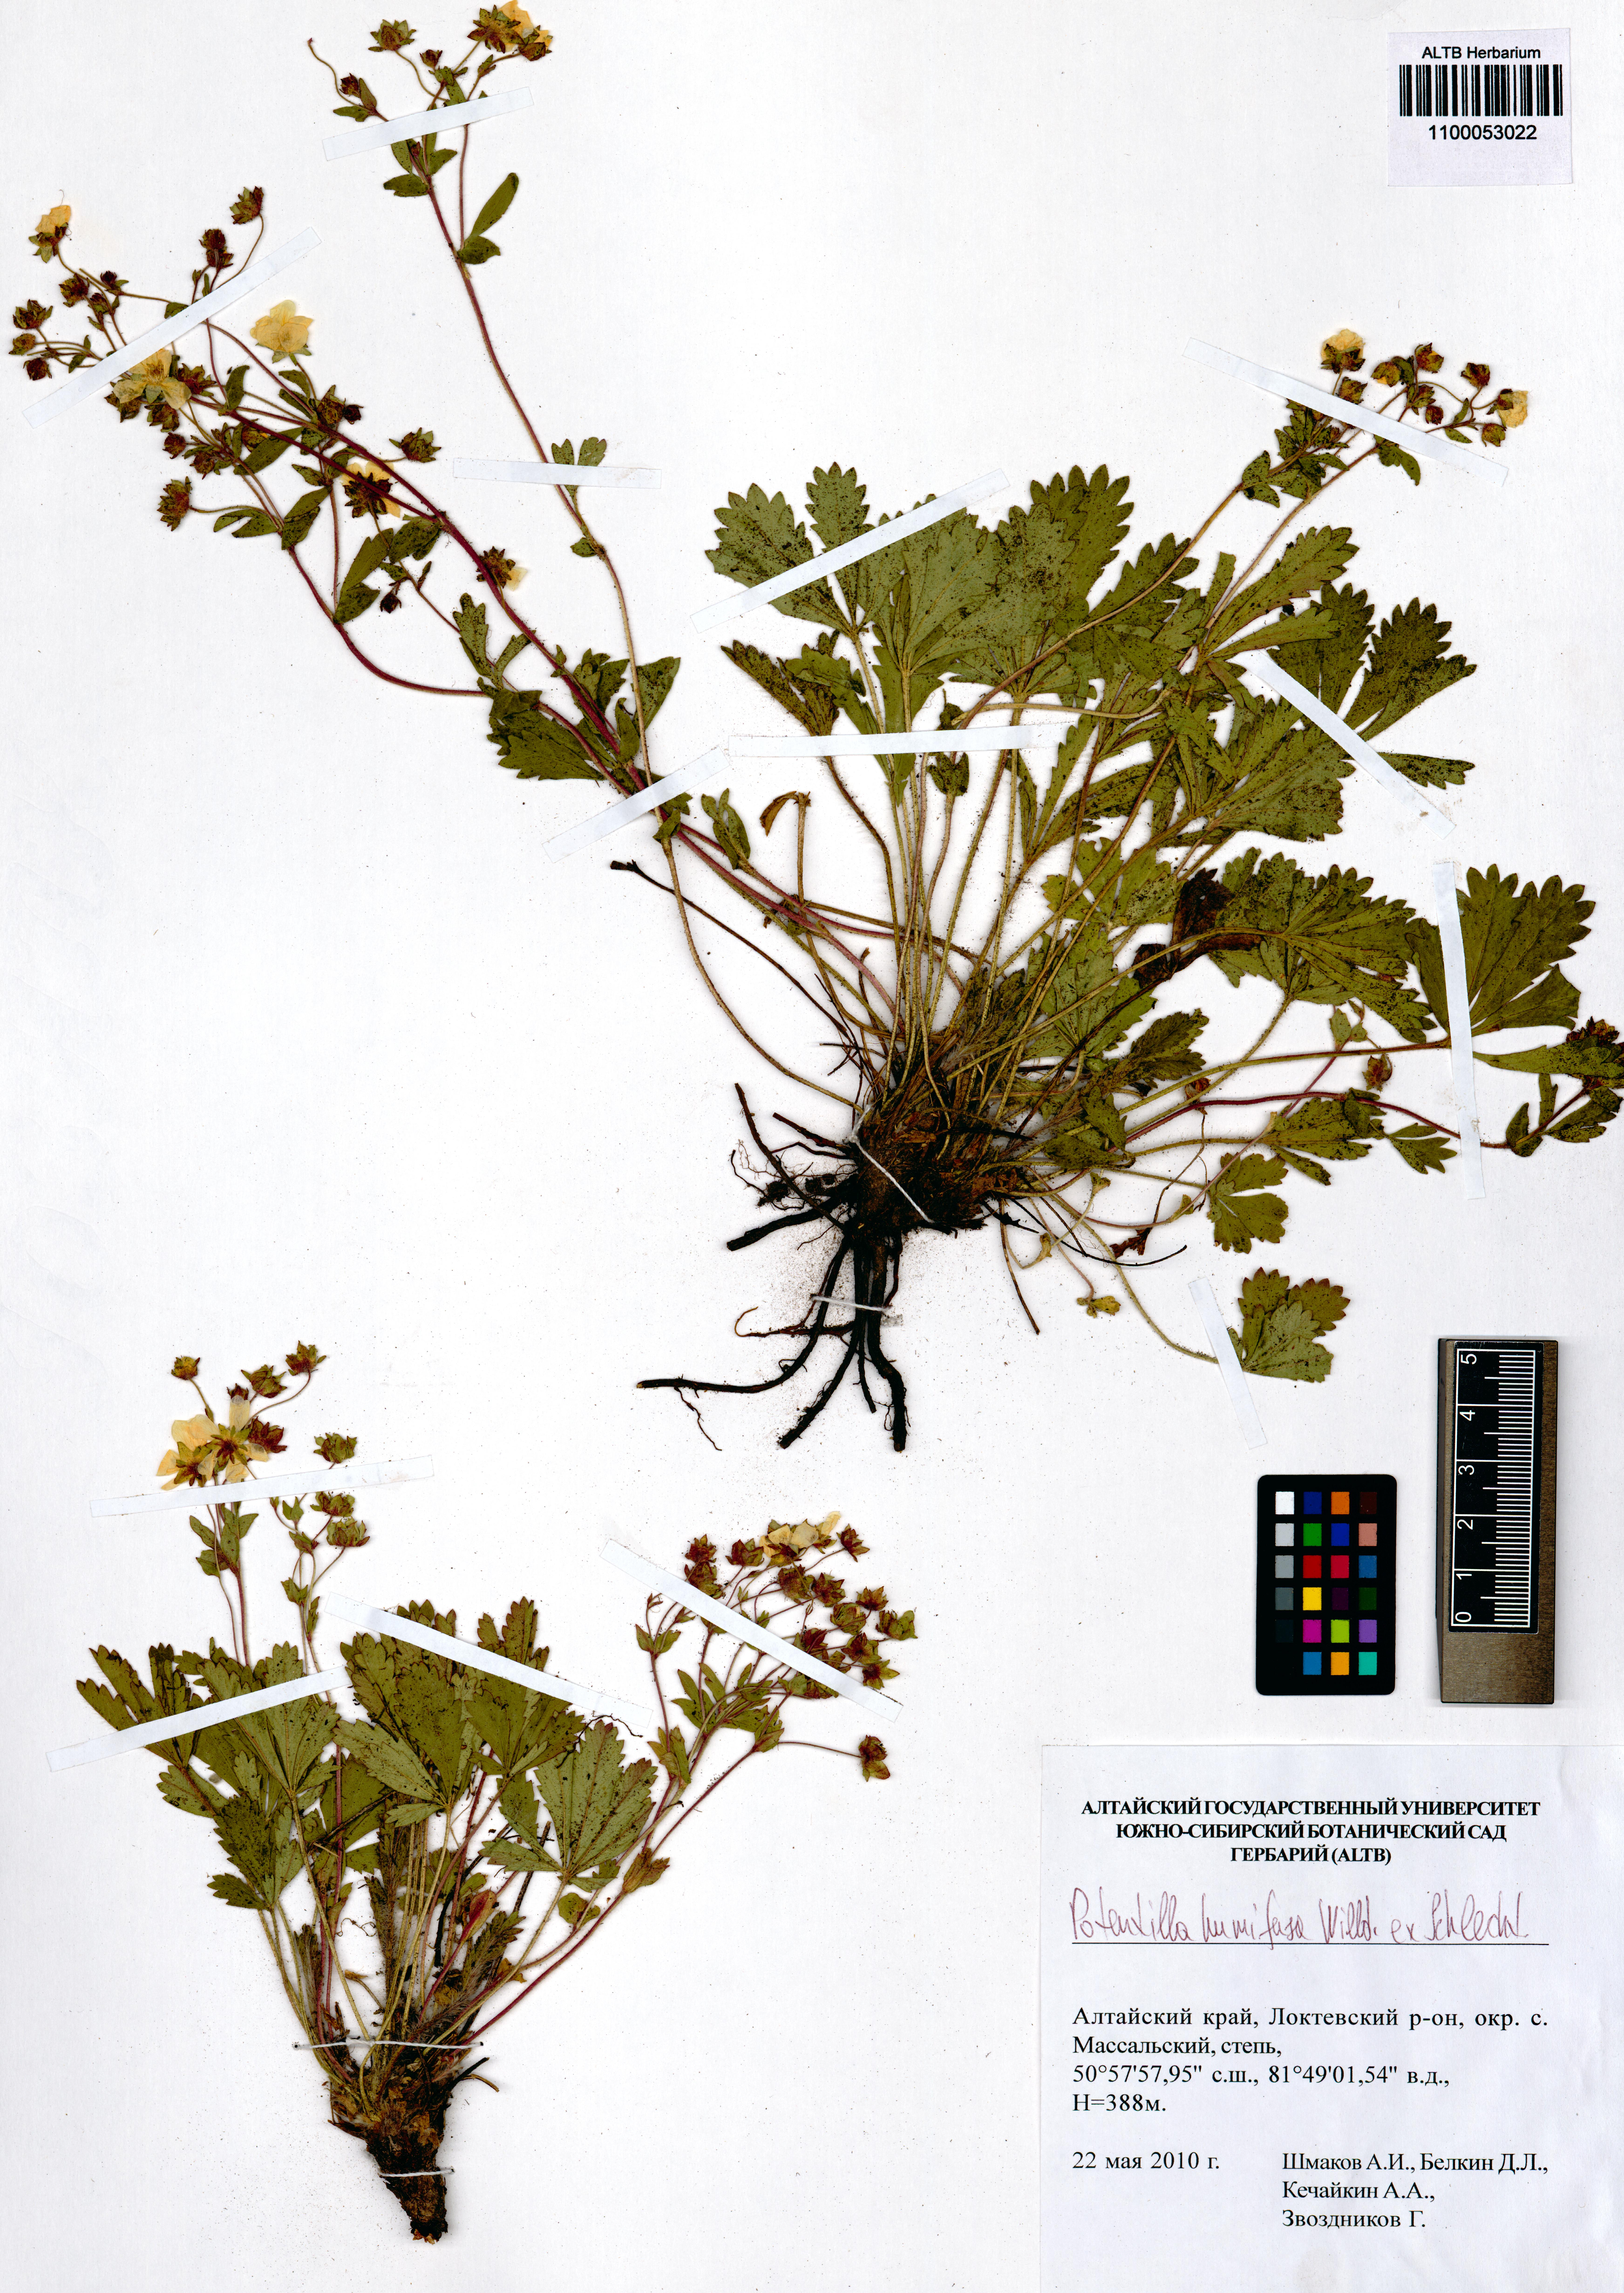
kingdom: Plantae
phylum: Tracheophyta
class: Magnoliopsida
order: Rosales
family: Rosaceae
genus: Potentilla
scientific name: Potentilla humifusa
